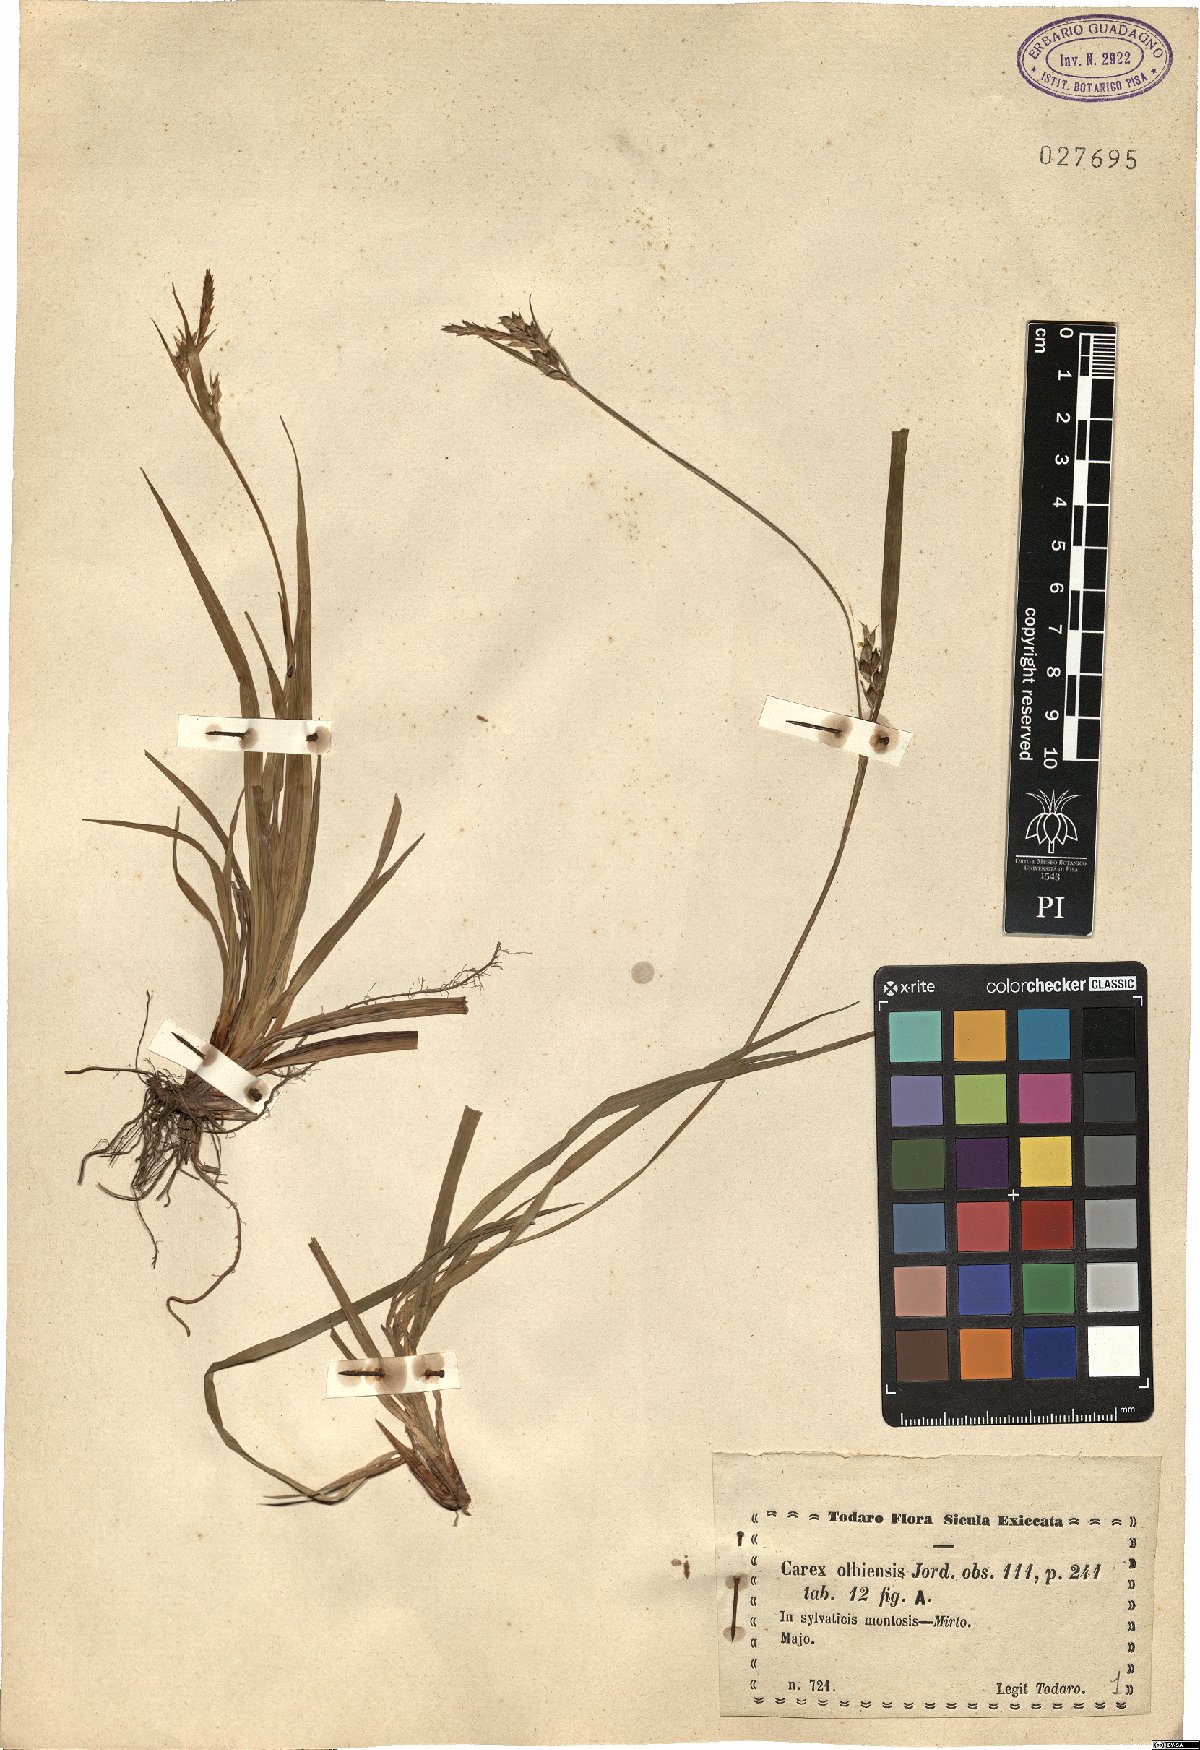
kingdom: Plantae
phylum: Tracheophyta
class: Liliopsida
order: Poales
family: Cyperaceae
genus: Carex
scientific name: Carex olbiensis
